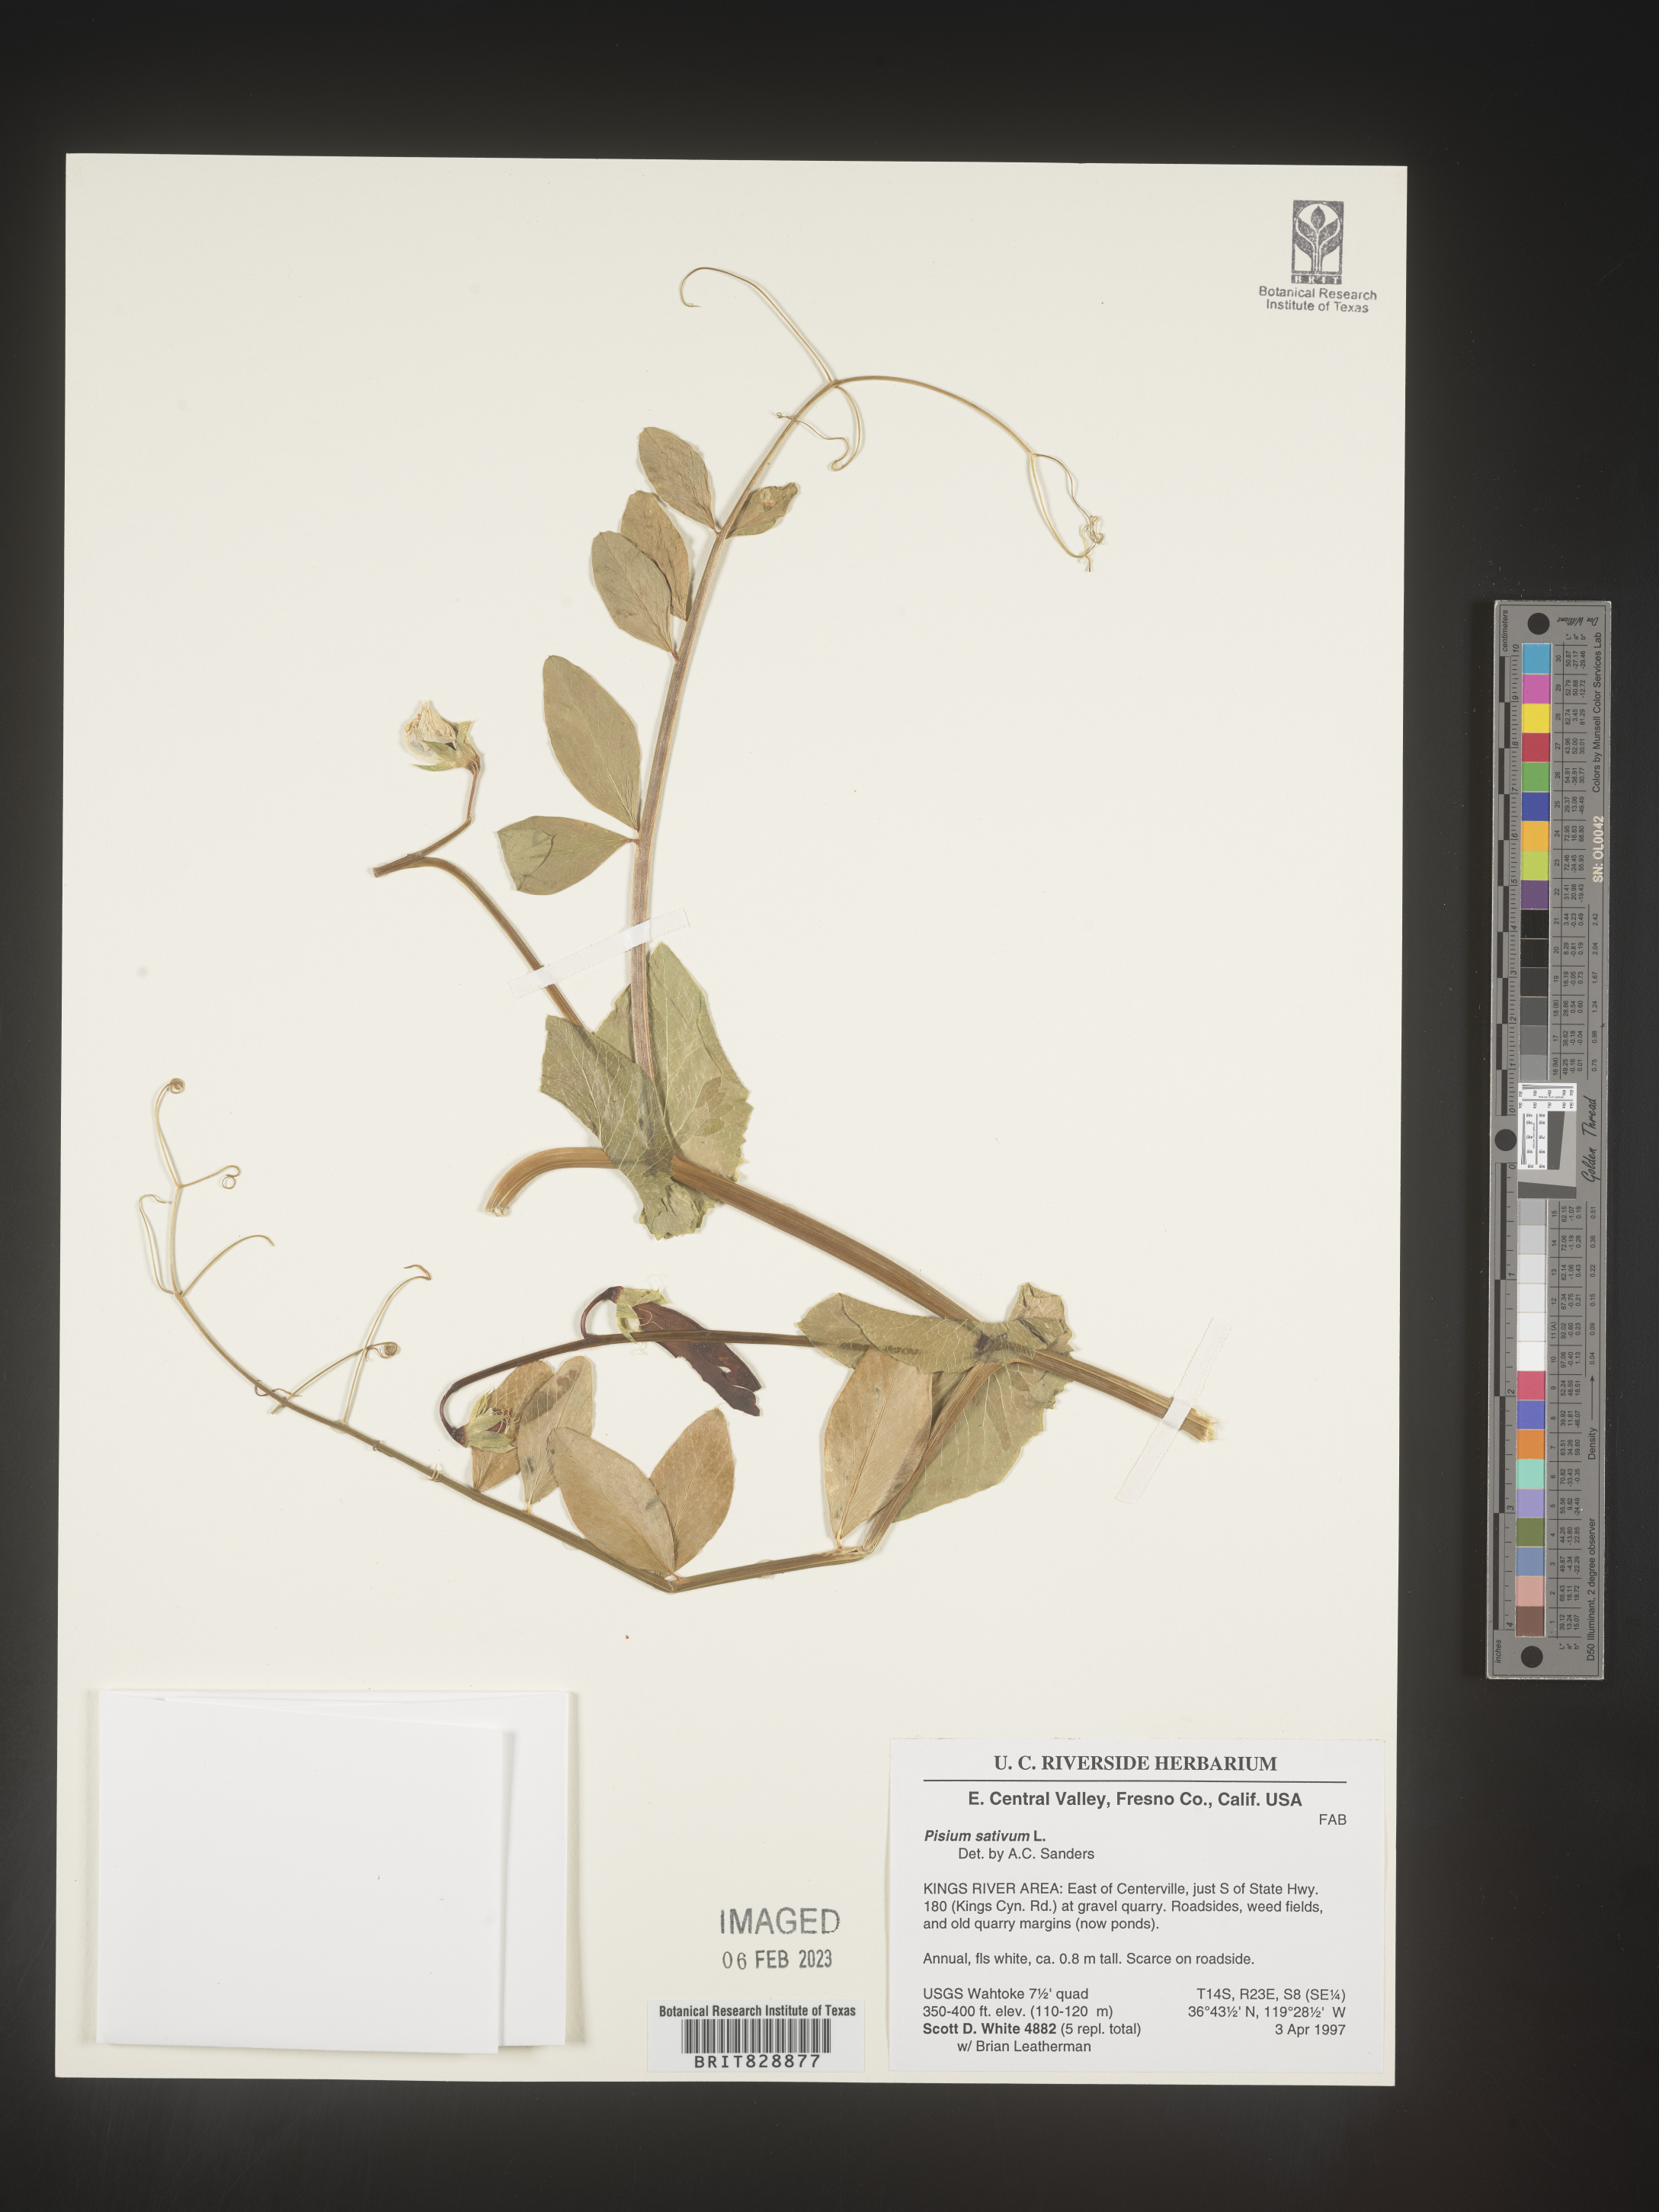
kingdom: Animalia
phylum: Mollusca
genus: Pisum
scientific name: Pisum
